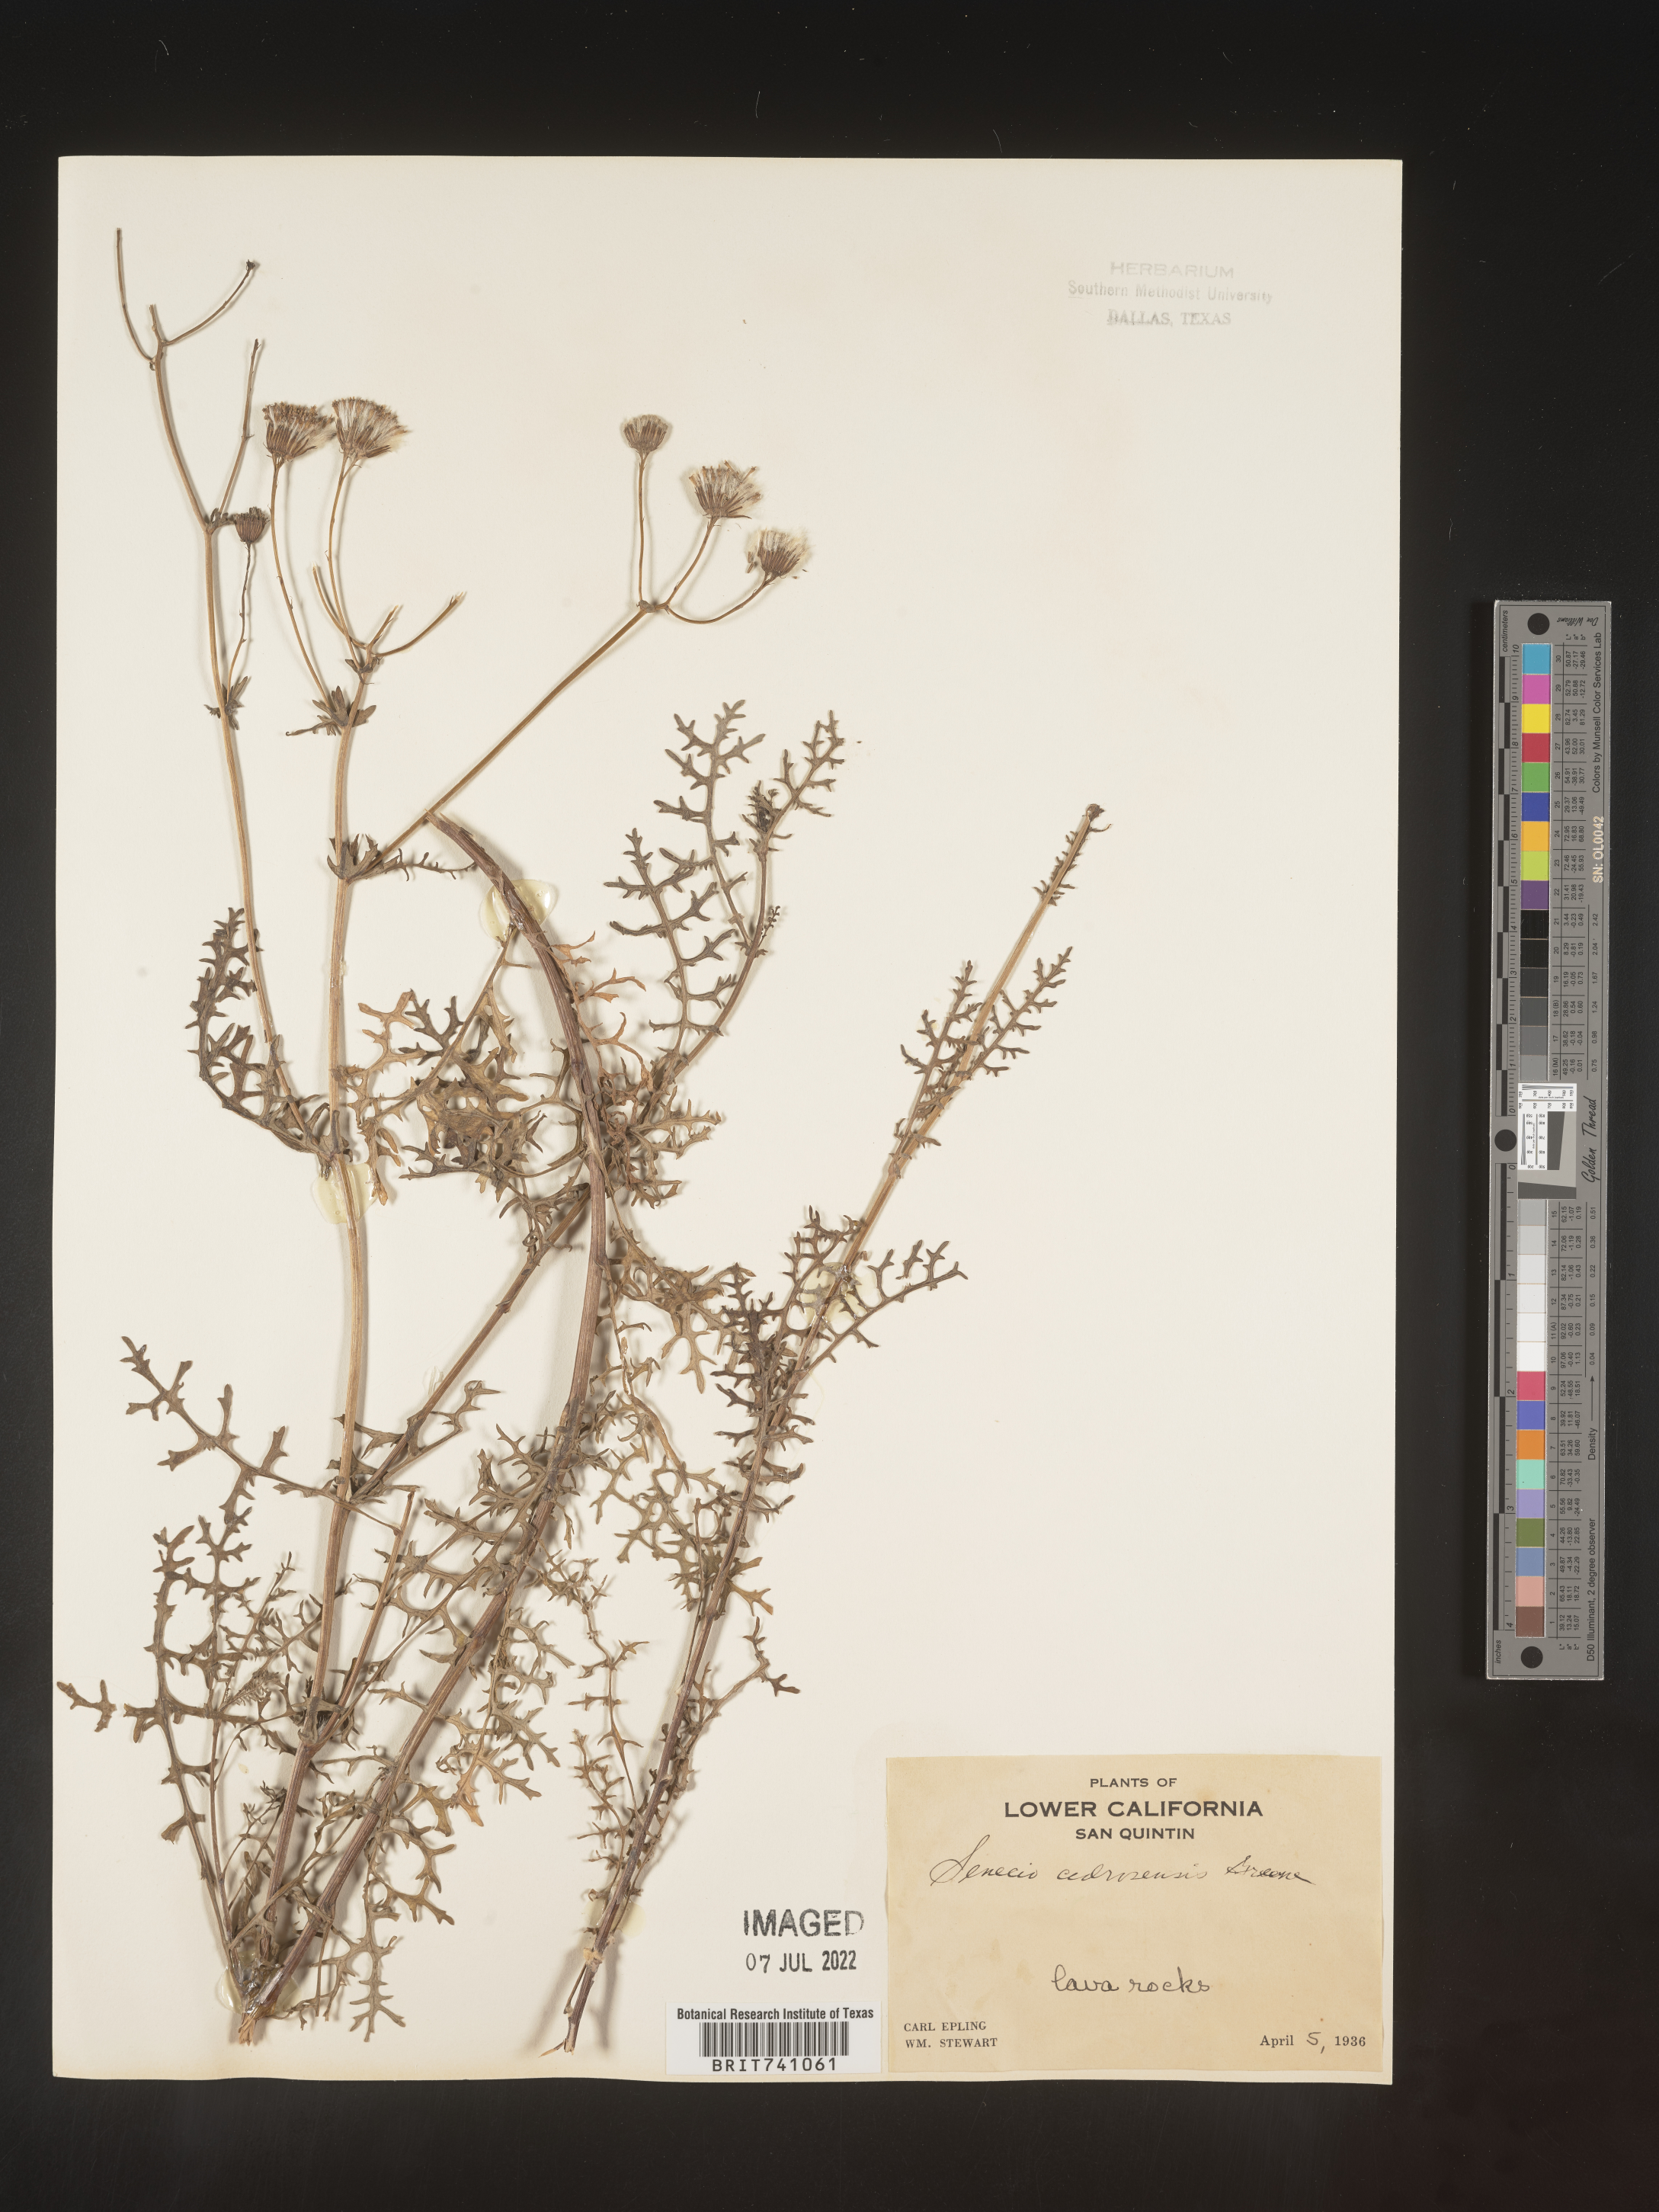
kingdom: Plantae
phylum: Tracheophyta
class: Magnoliopsida
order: Asterales
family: Asteraceae
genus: Senecio
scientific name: Senecio
